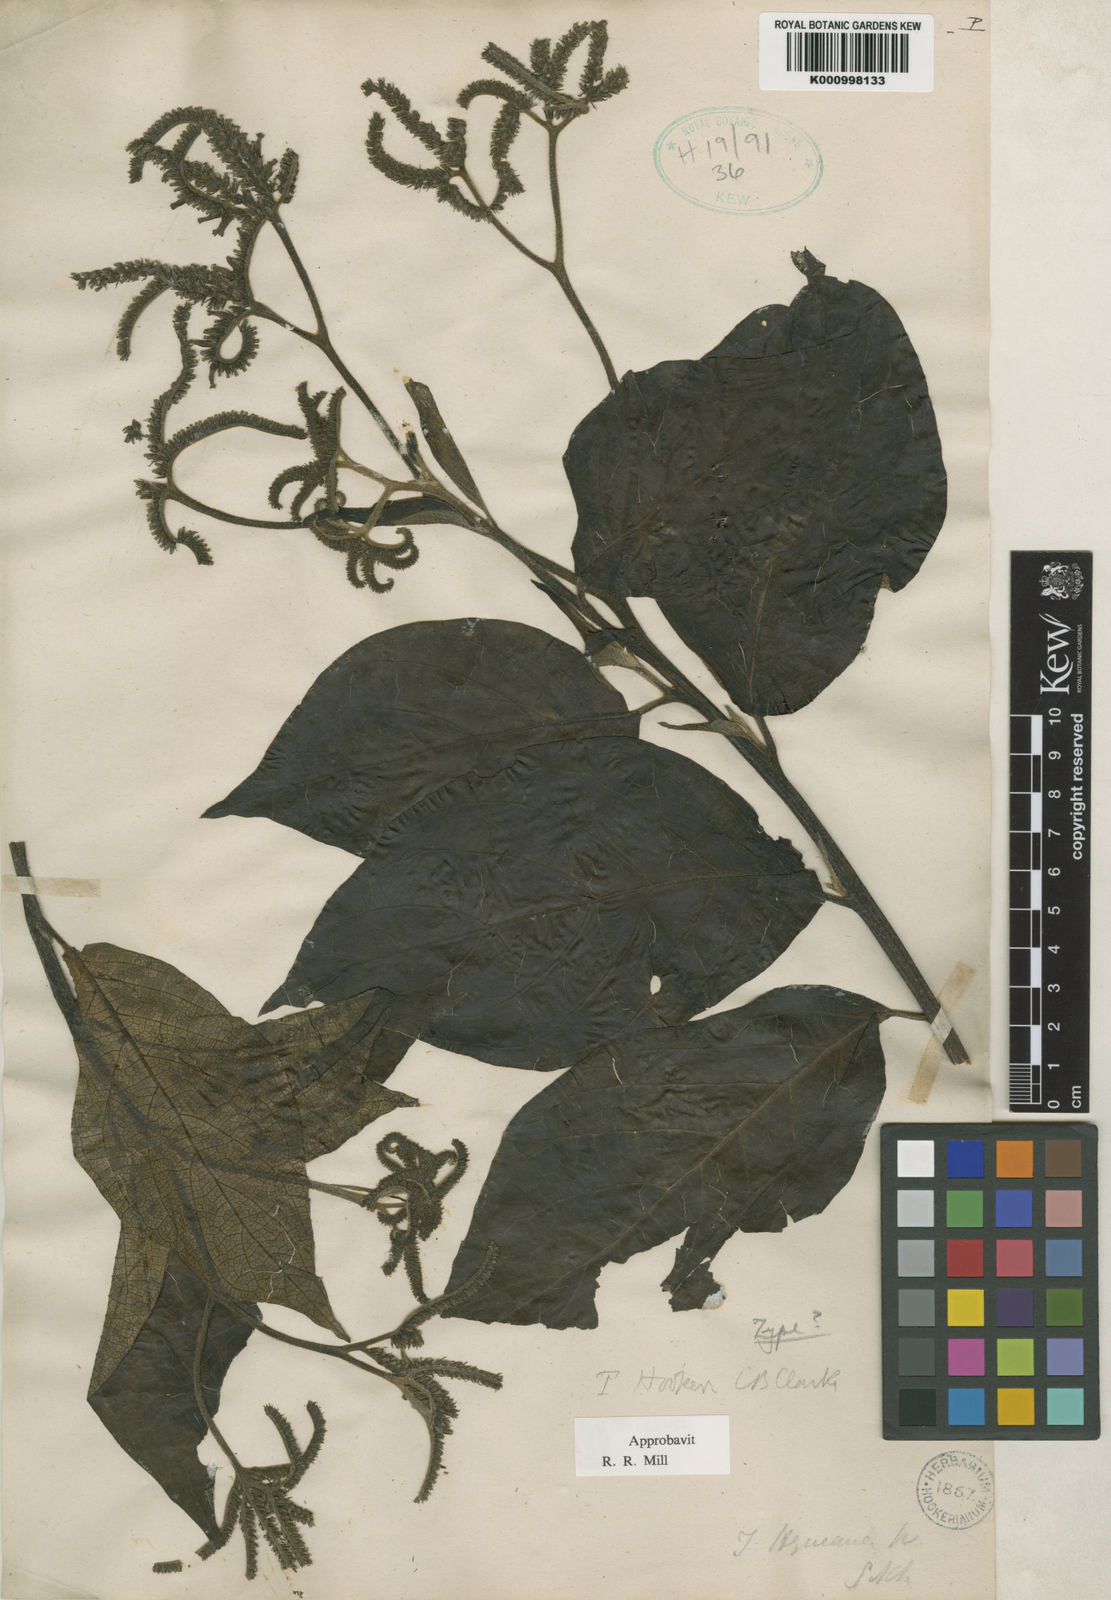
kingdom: Plantae
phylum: Tracheophyta
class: Magnoliopsida
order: Boraginales
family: Heliotropiaceae
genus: Tournefortia
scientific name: Tournefortia hookeri
